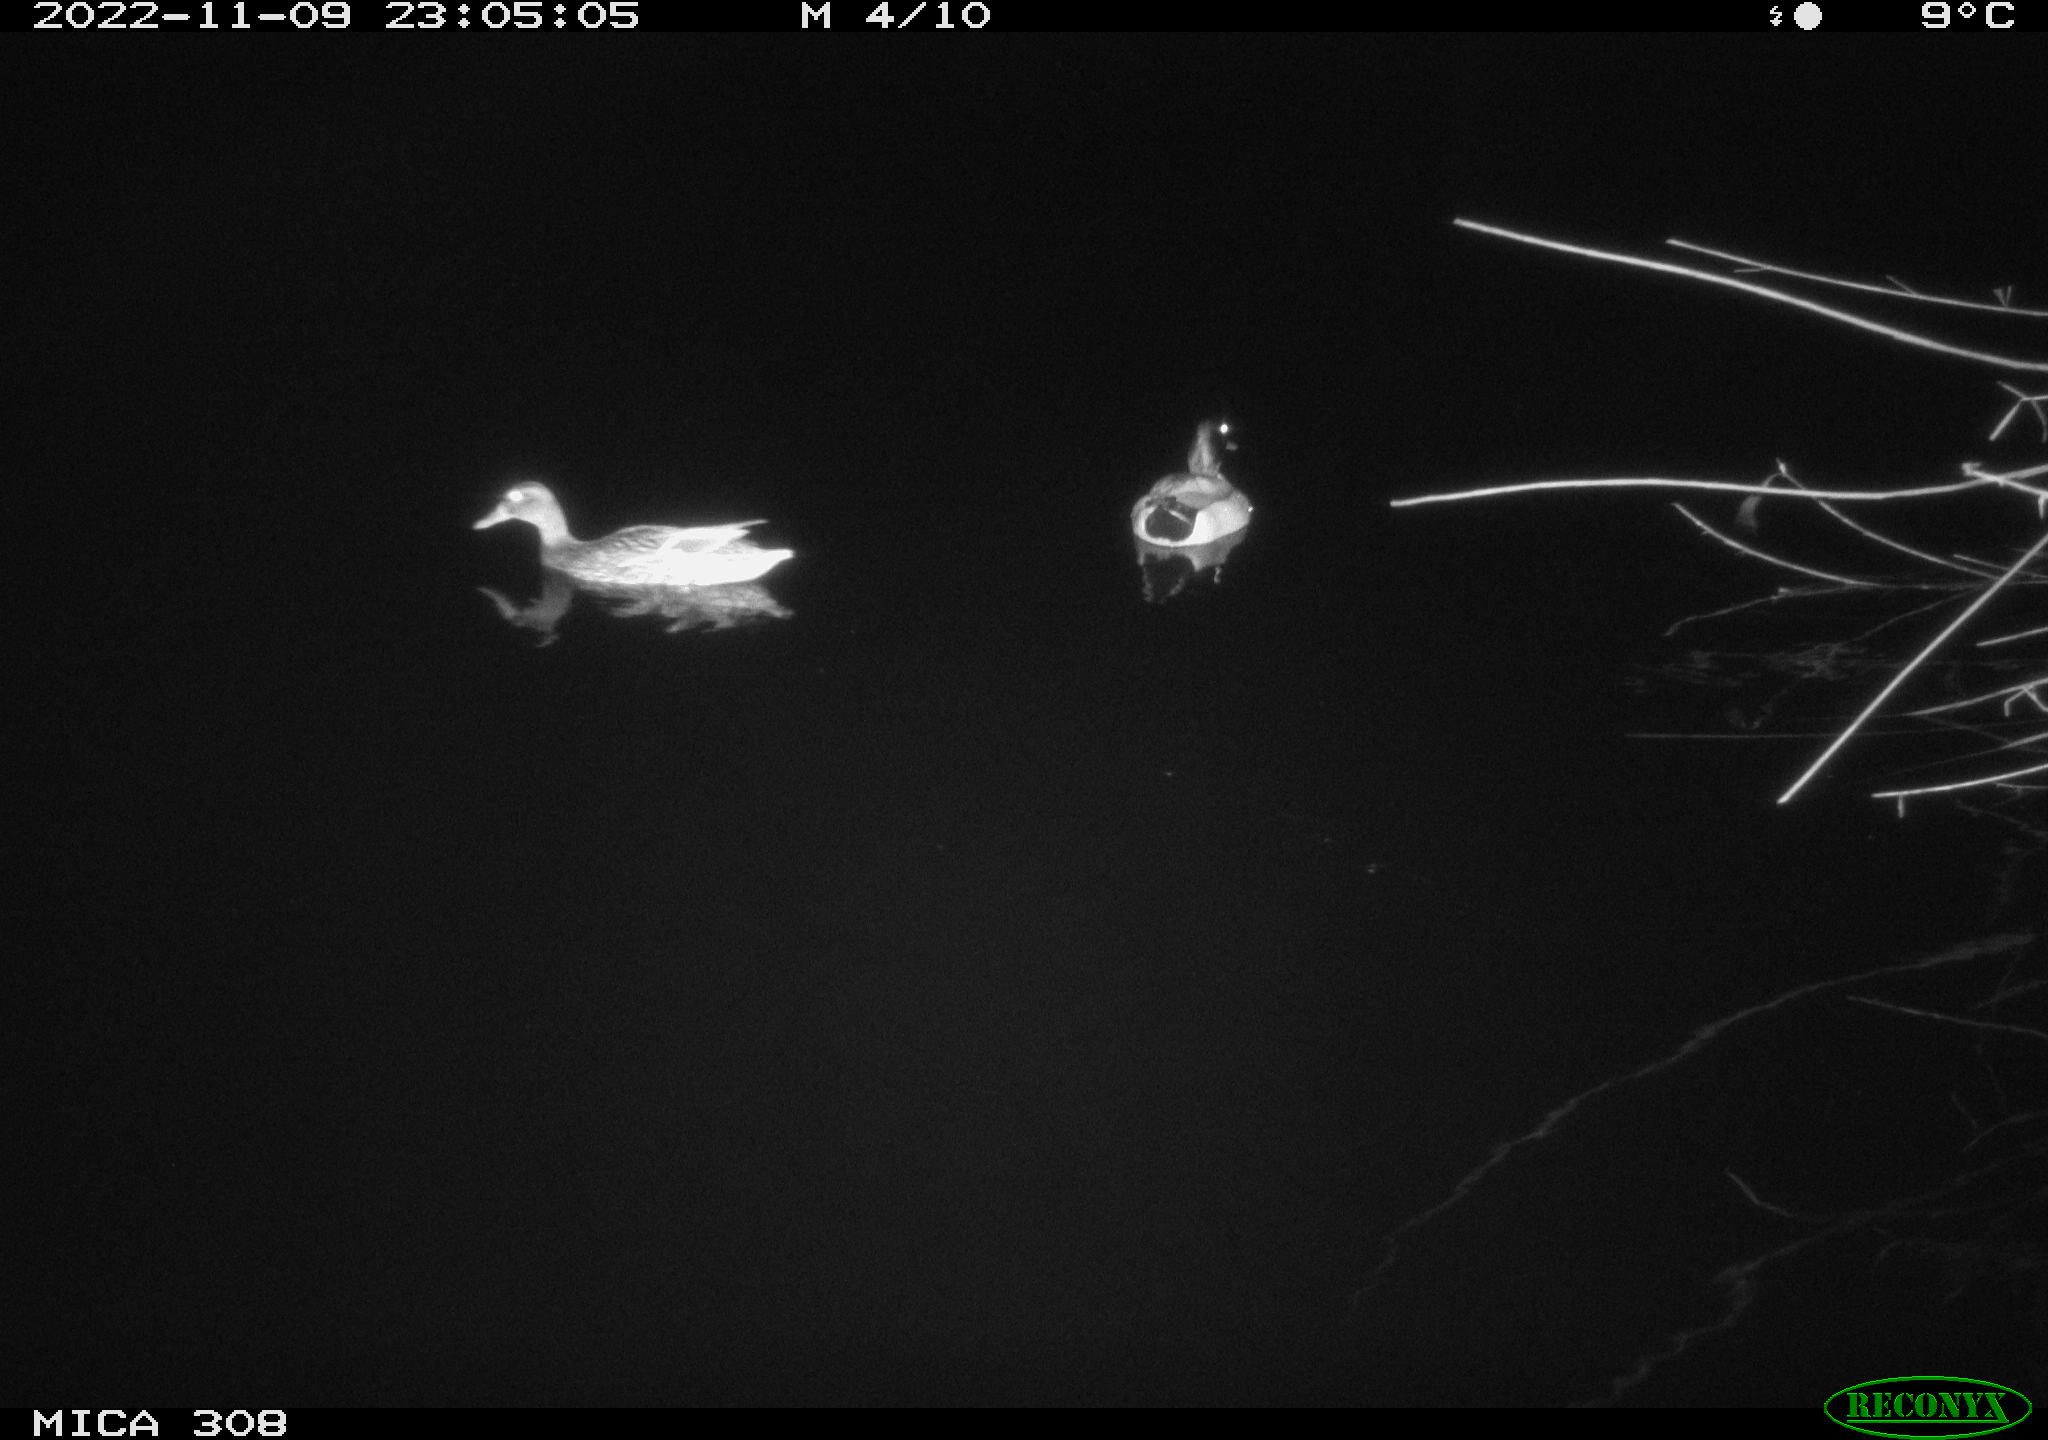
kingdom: Animalia
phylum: Chordata
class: Aves
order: Anseriformes
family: Anatidae
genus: Anas
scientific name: Anas
